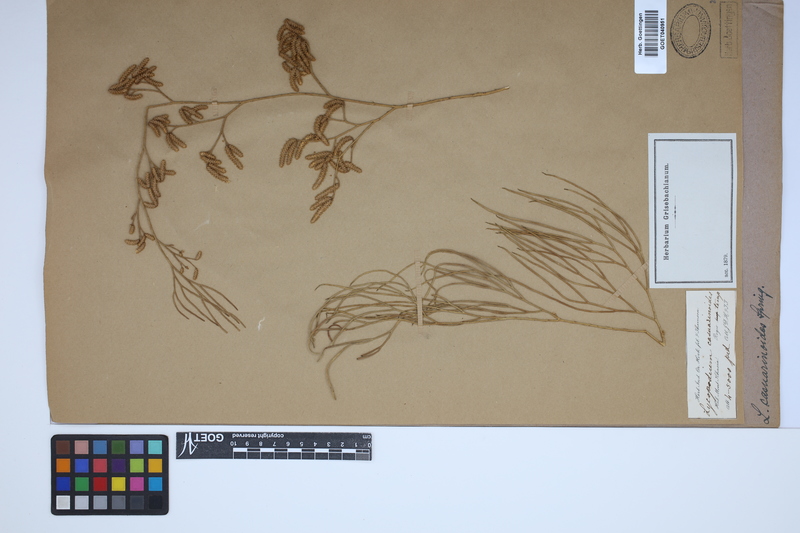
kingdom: Plantae
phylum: Tracheophyta
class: Lycopodiopsida
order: Lycopodiales
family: Lycopodiaceae
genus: Lycopodiastrum
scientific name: Lycopodiastrum casuarinoides
